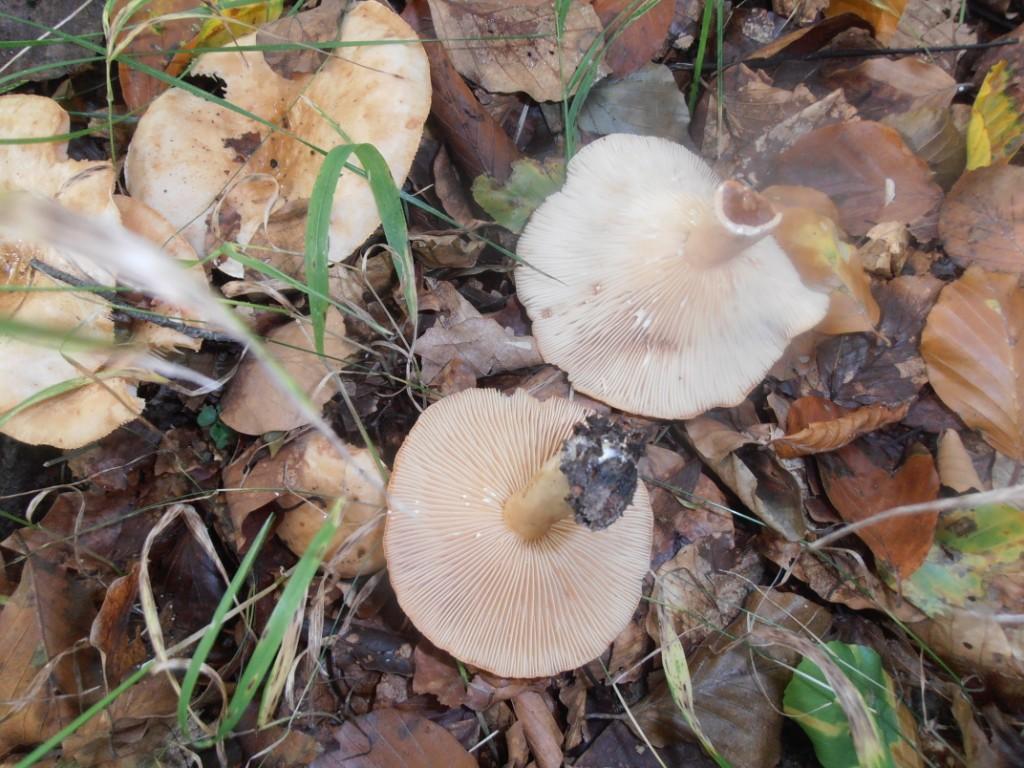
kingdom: Fungi
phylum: Basidiomycota
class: Agaricomycetes
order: Russulales
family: Russulaceae
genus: Lactarius
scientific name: Lactarius rubrocinctus
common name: halsbånd-mælkehat
